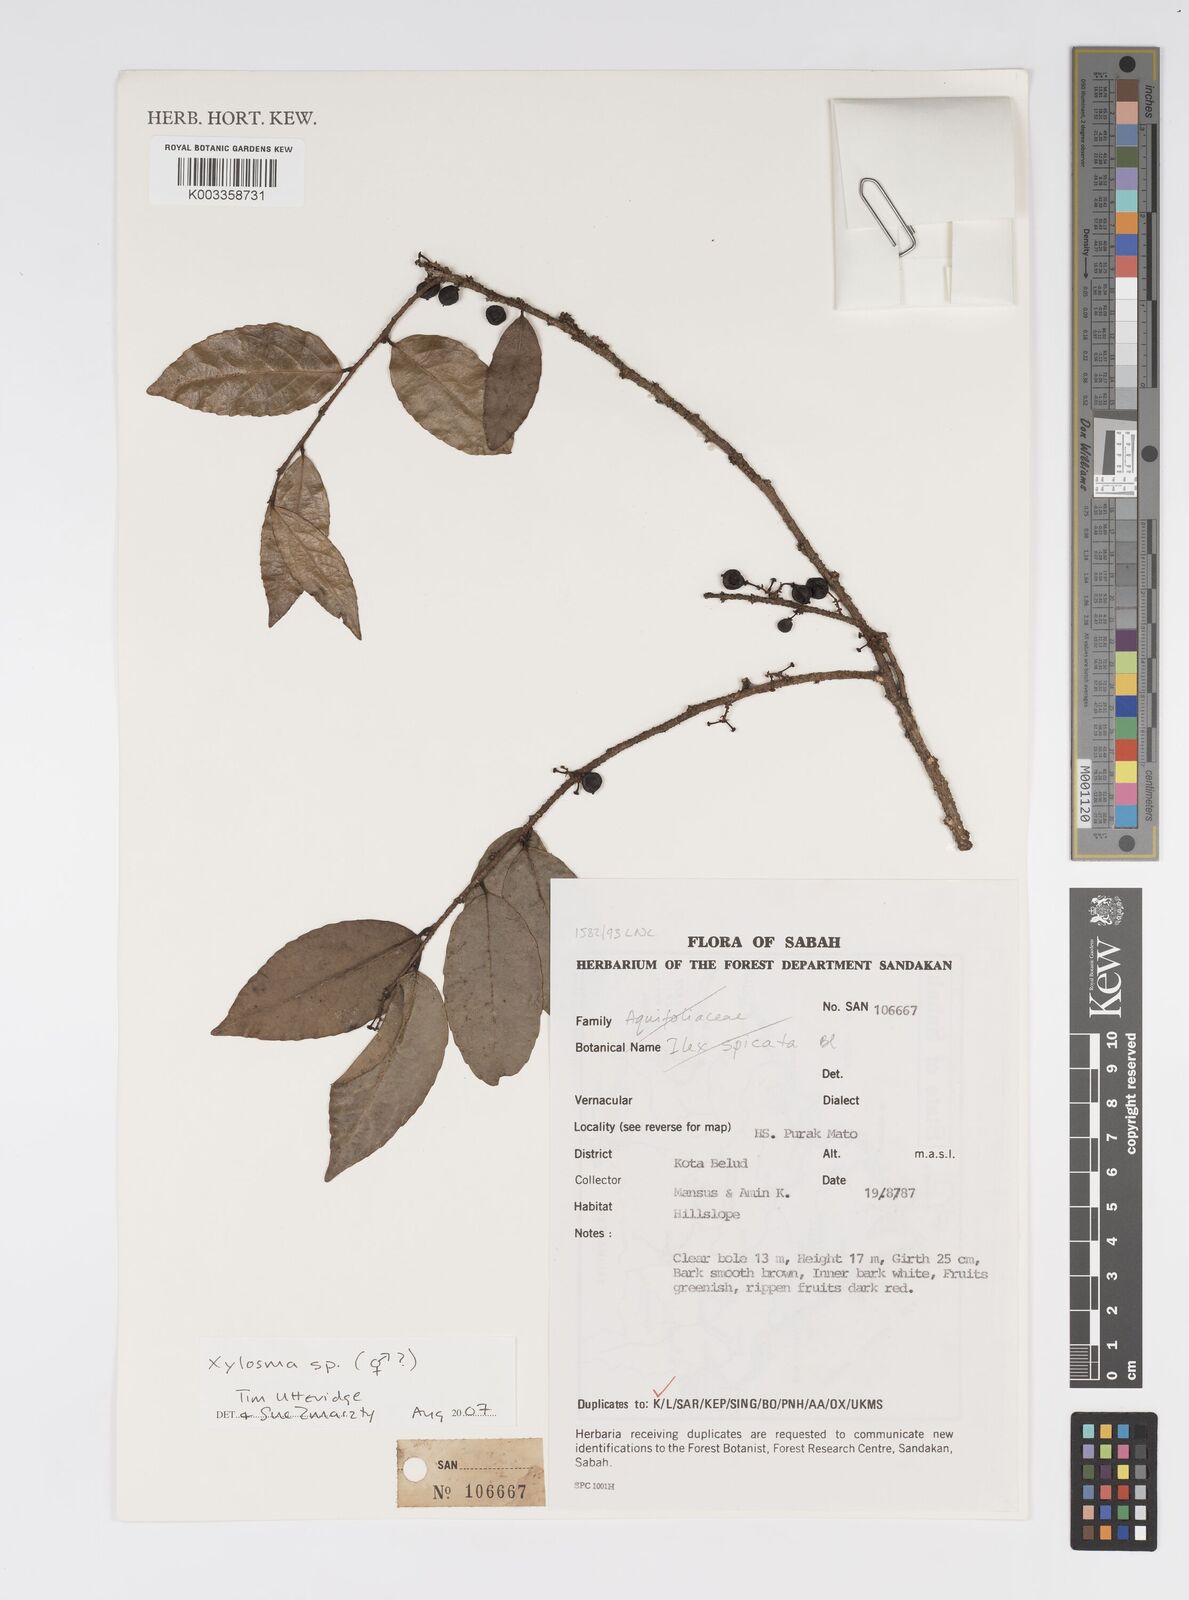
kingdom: Plantae
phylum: Tracheophyta
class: Magnoliopsida
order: Malpighiales
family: Salicaceae
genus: Xylosma
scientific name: Xylosma
